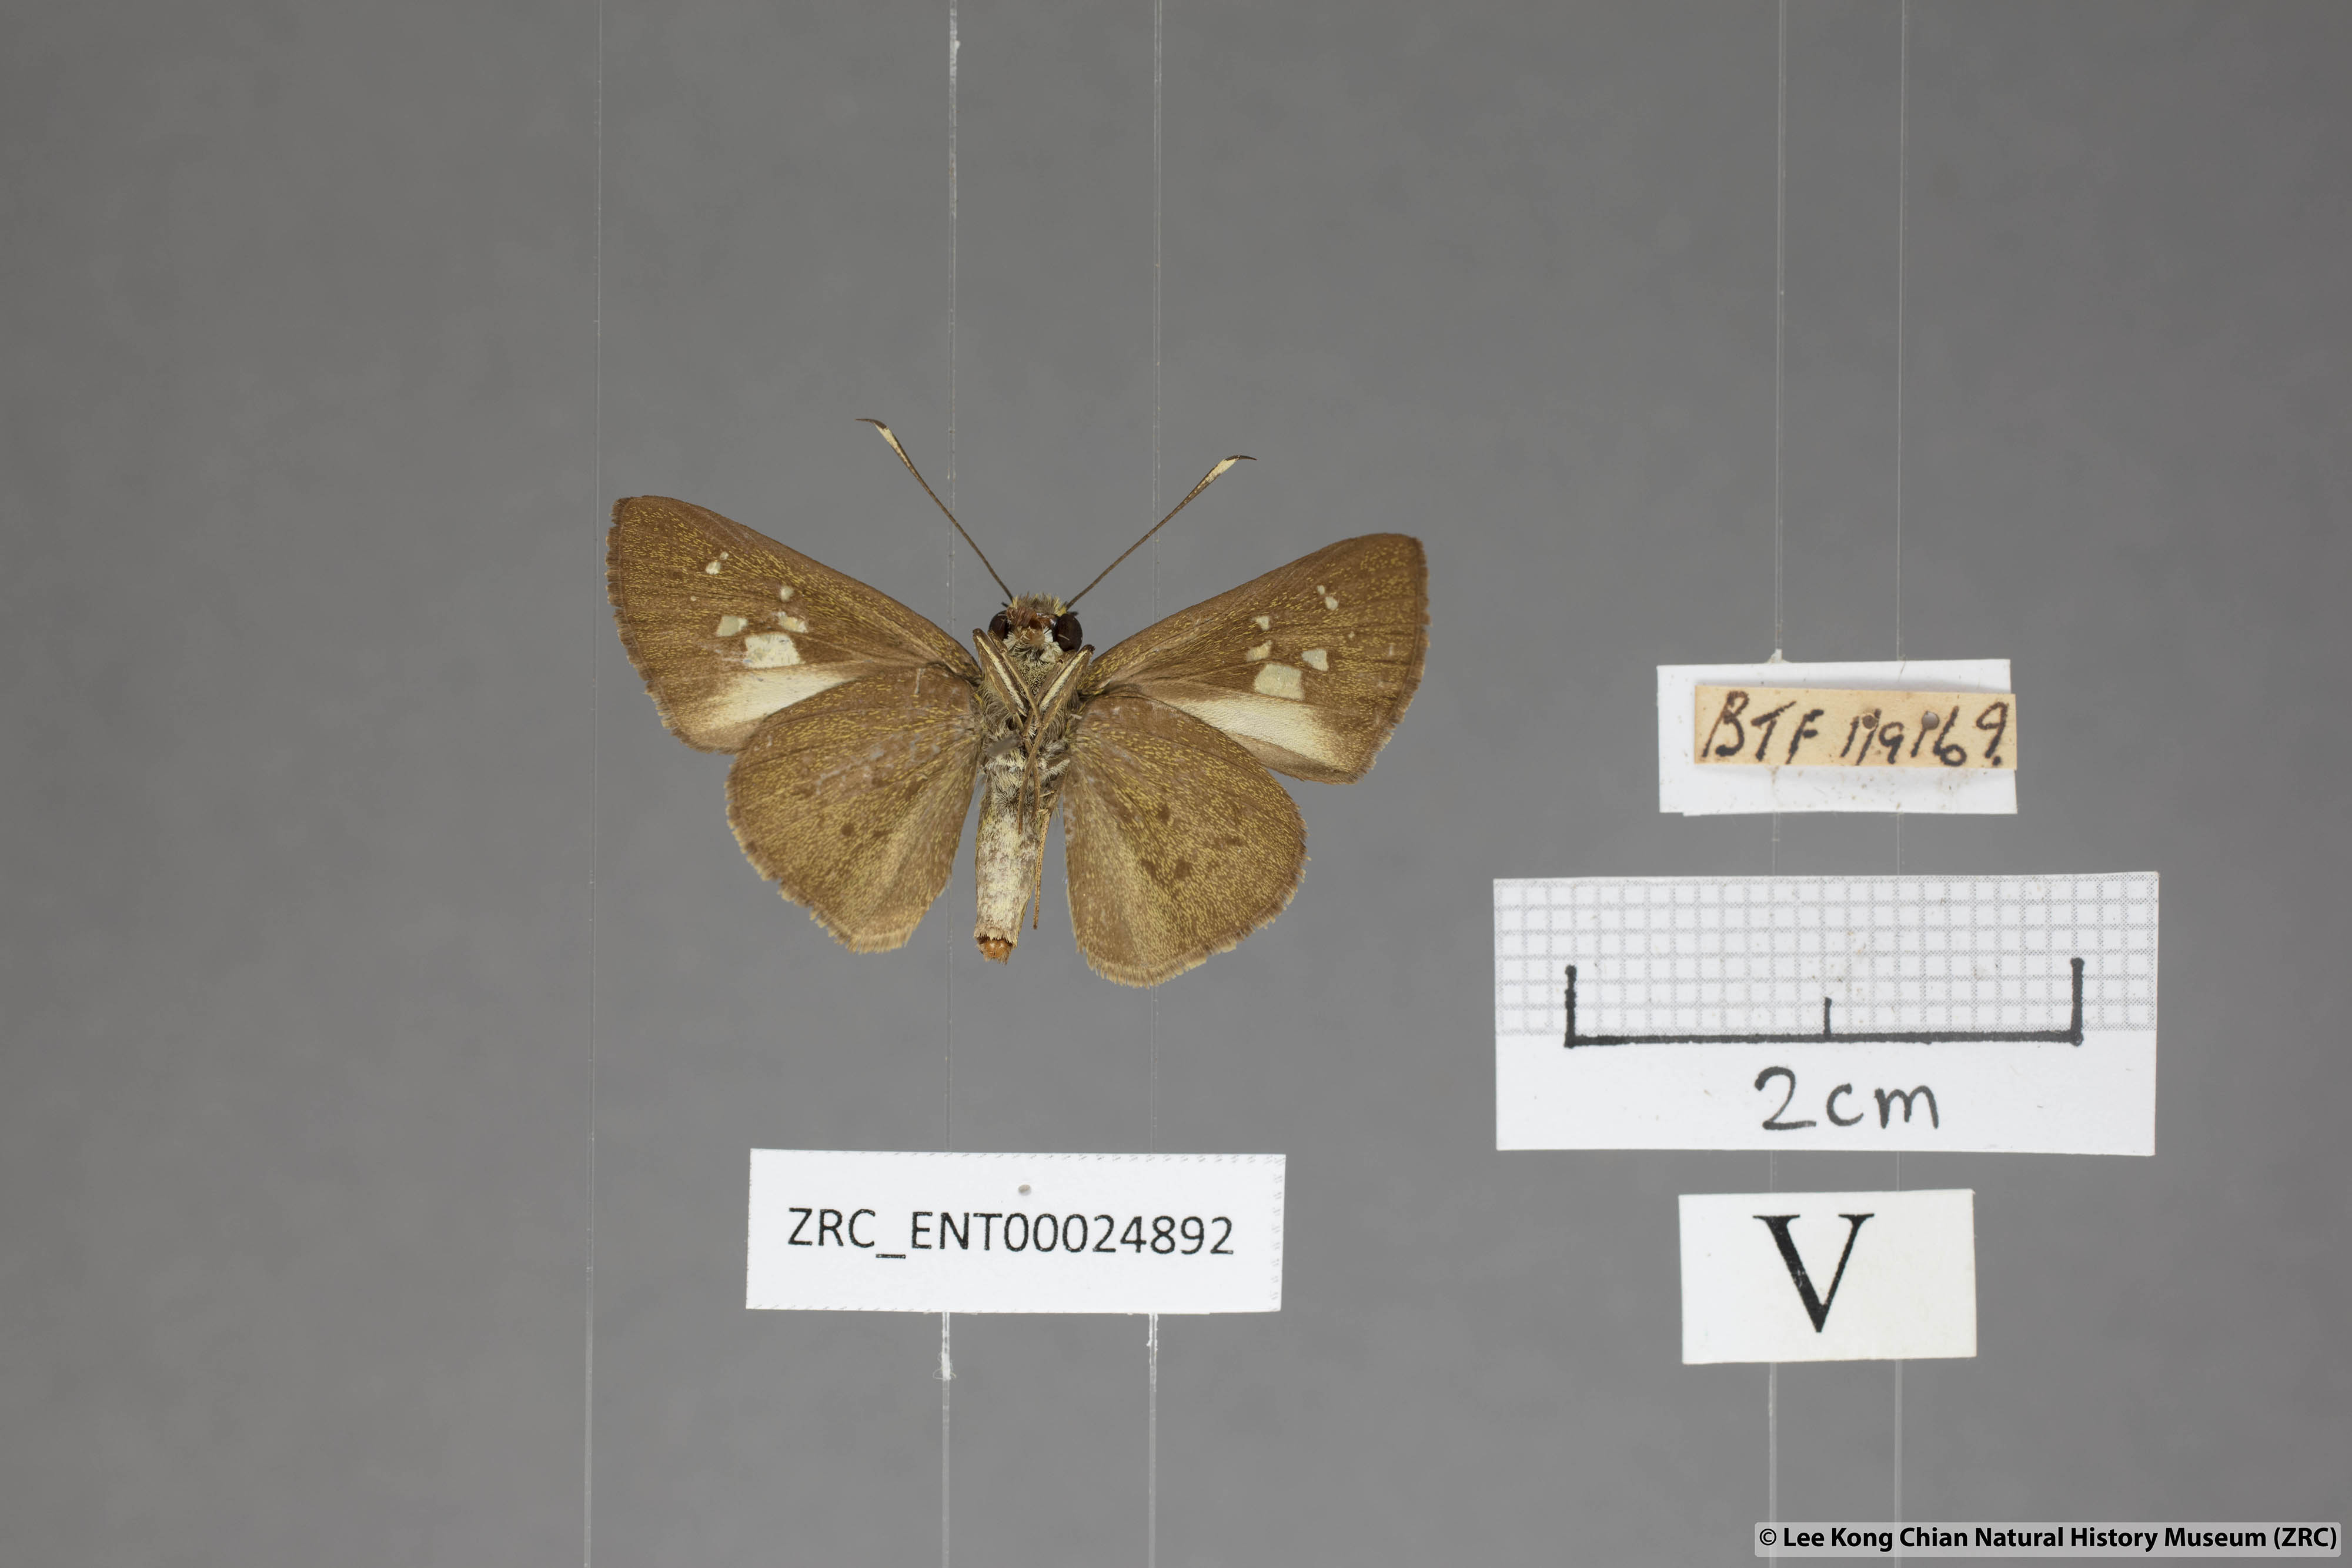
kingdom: Animalia
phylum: Arthropoda
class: Insecta
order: Lepidoptera
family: Hesperiidae
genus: Isma
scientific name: Isma
